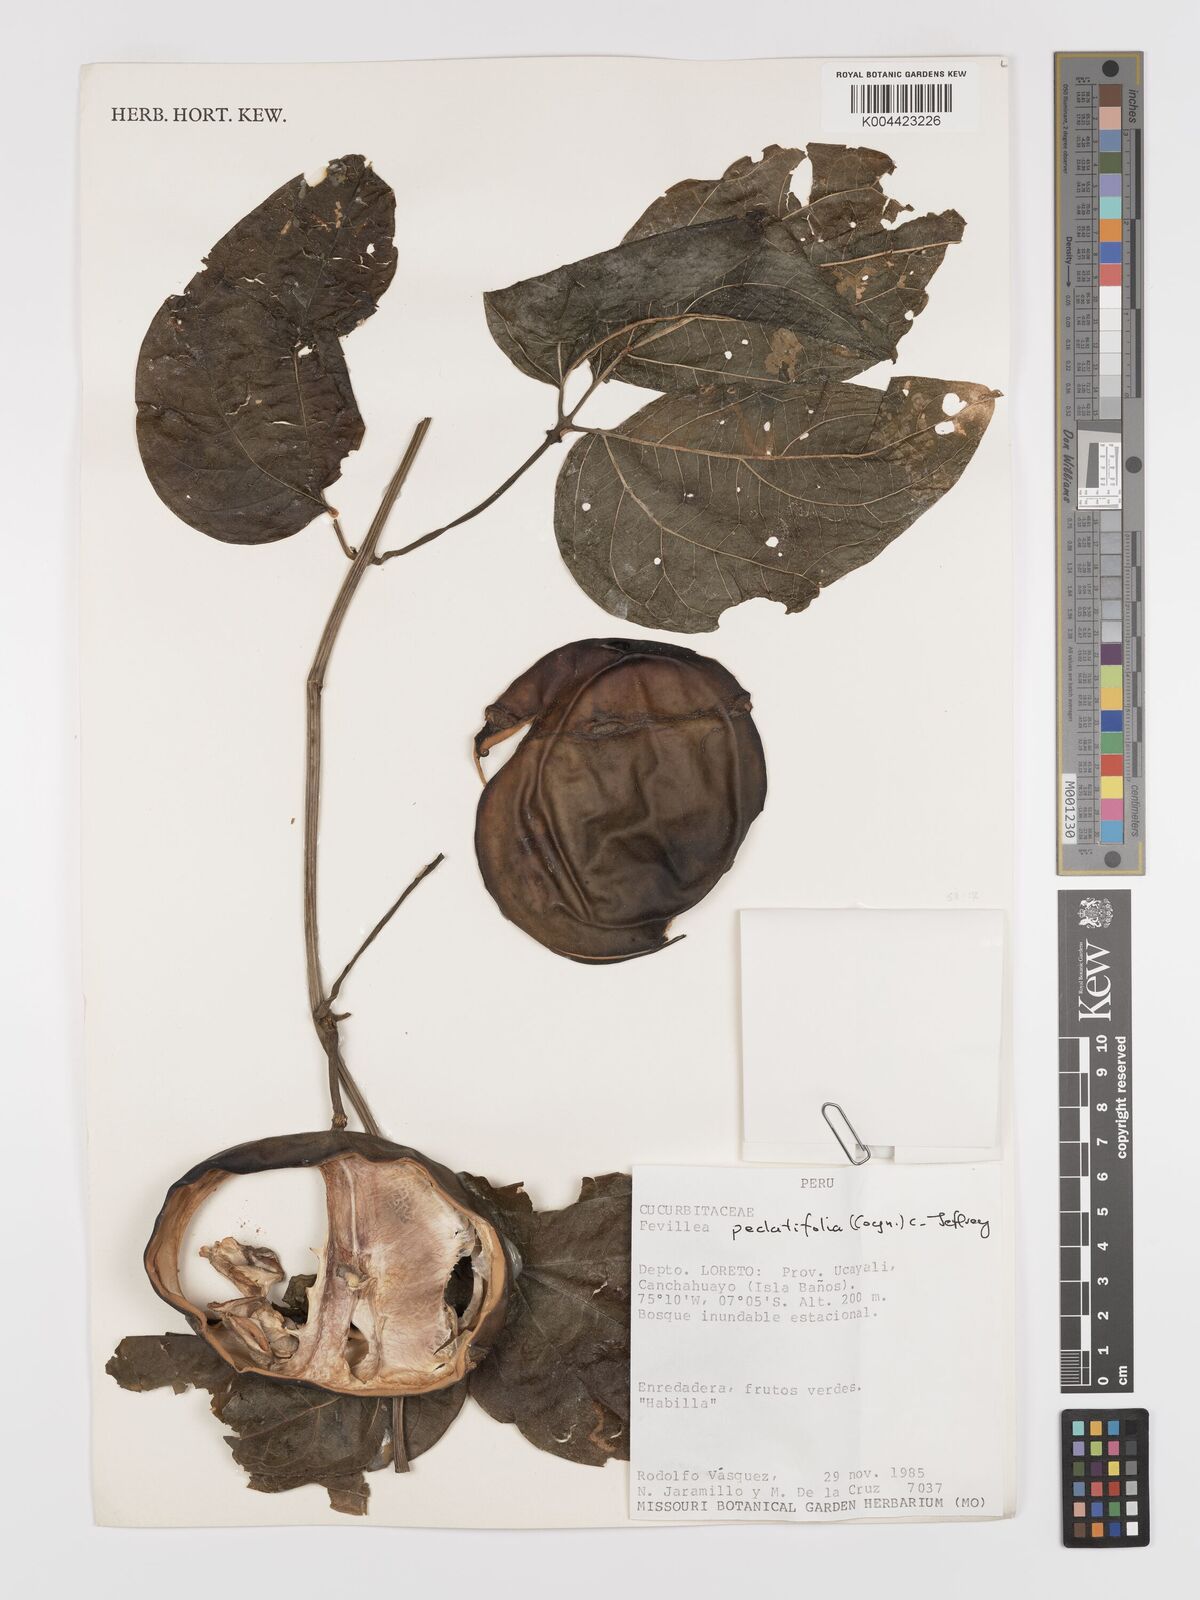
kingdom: Plantae
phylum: Tracheophyta
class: Magnoliopsida
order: Cucurbitales
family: Cucurbitaceae
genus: Fevillea
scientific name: Fevillea pedatifolia
